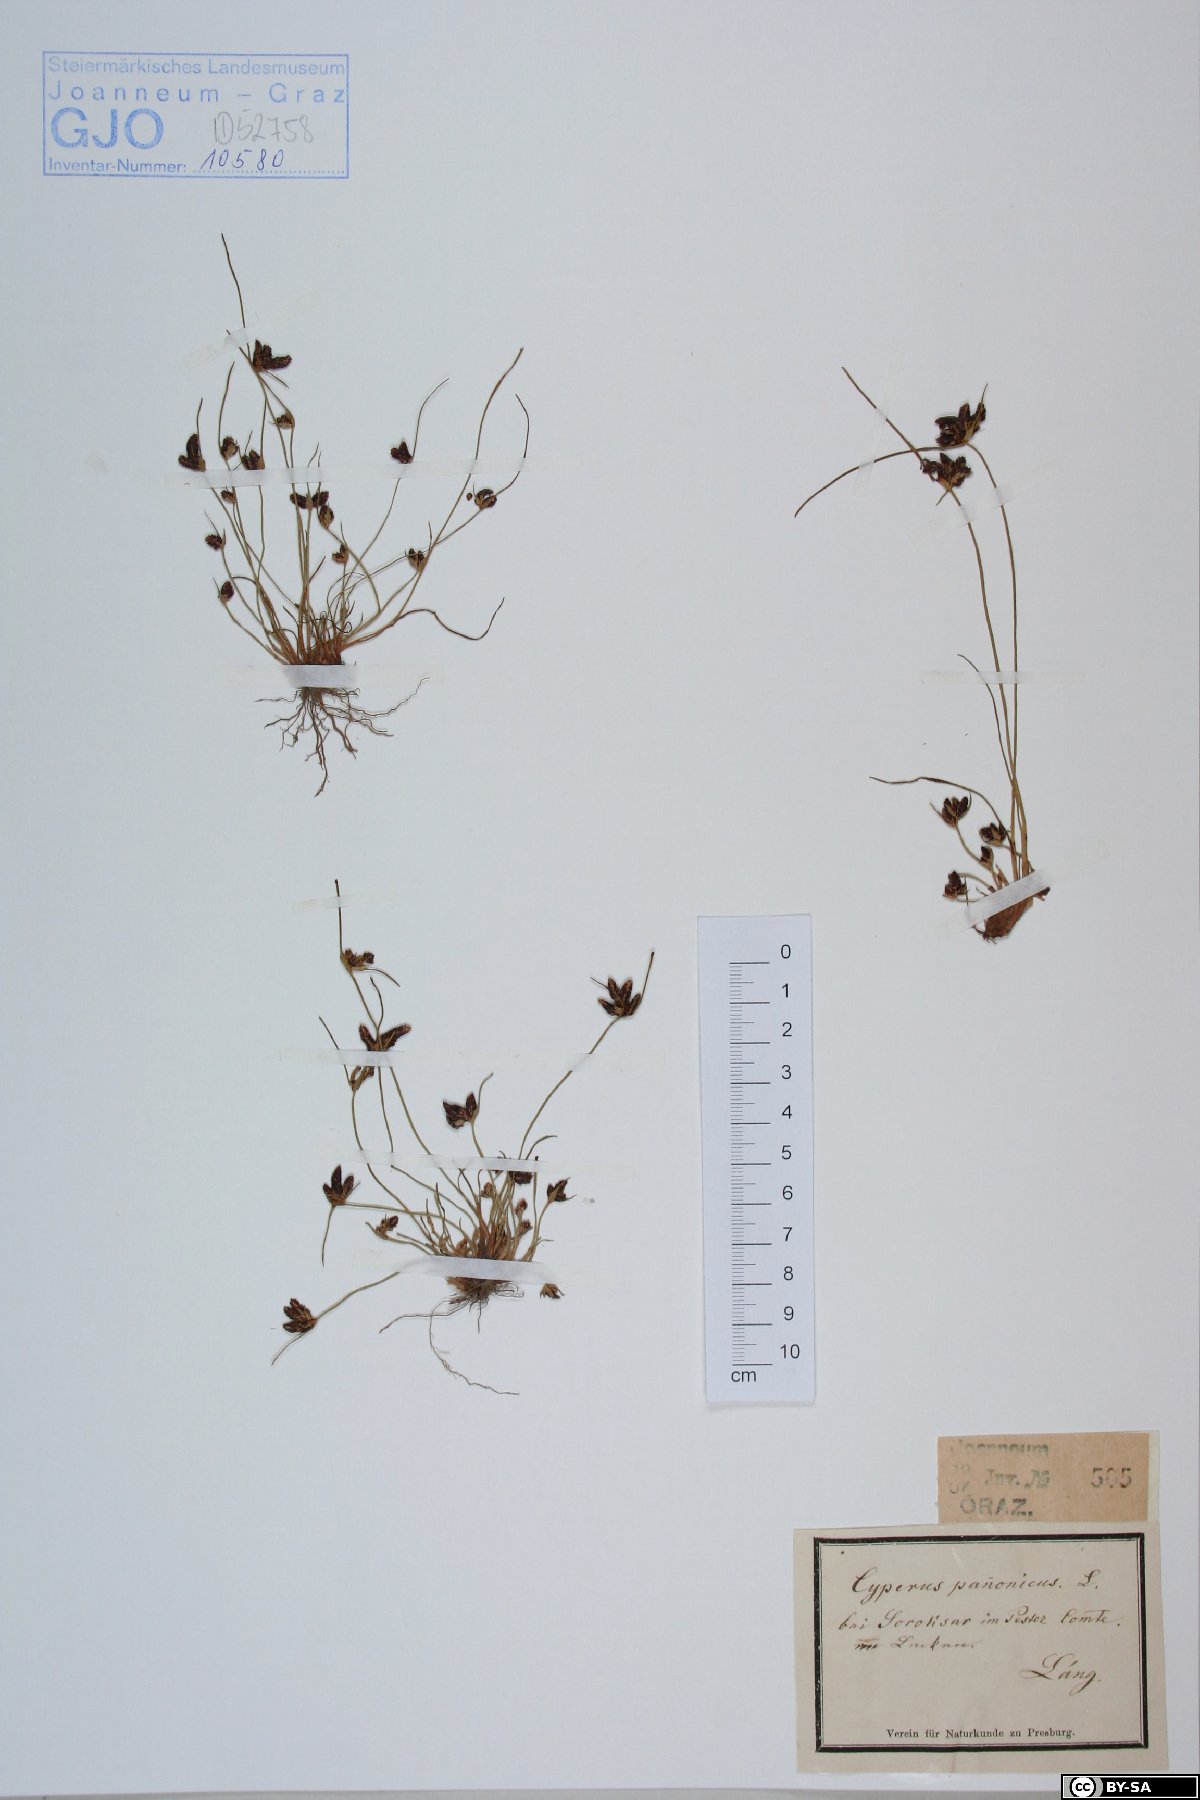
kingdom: Plantae
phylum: Tracheophyta
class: Liliopsida
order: Poales
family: Cyperaceae
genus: Cyperus
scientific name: Cyperus pannonicus
